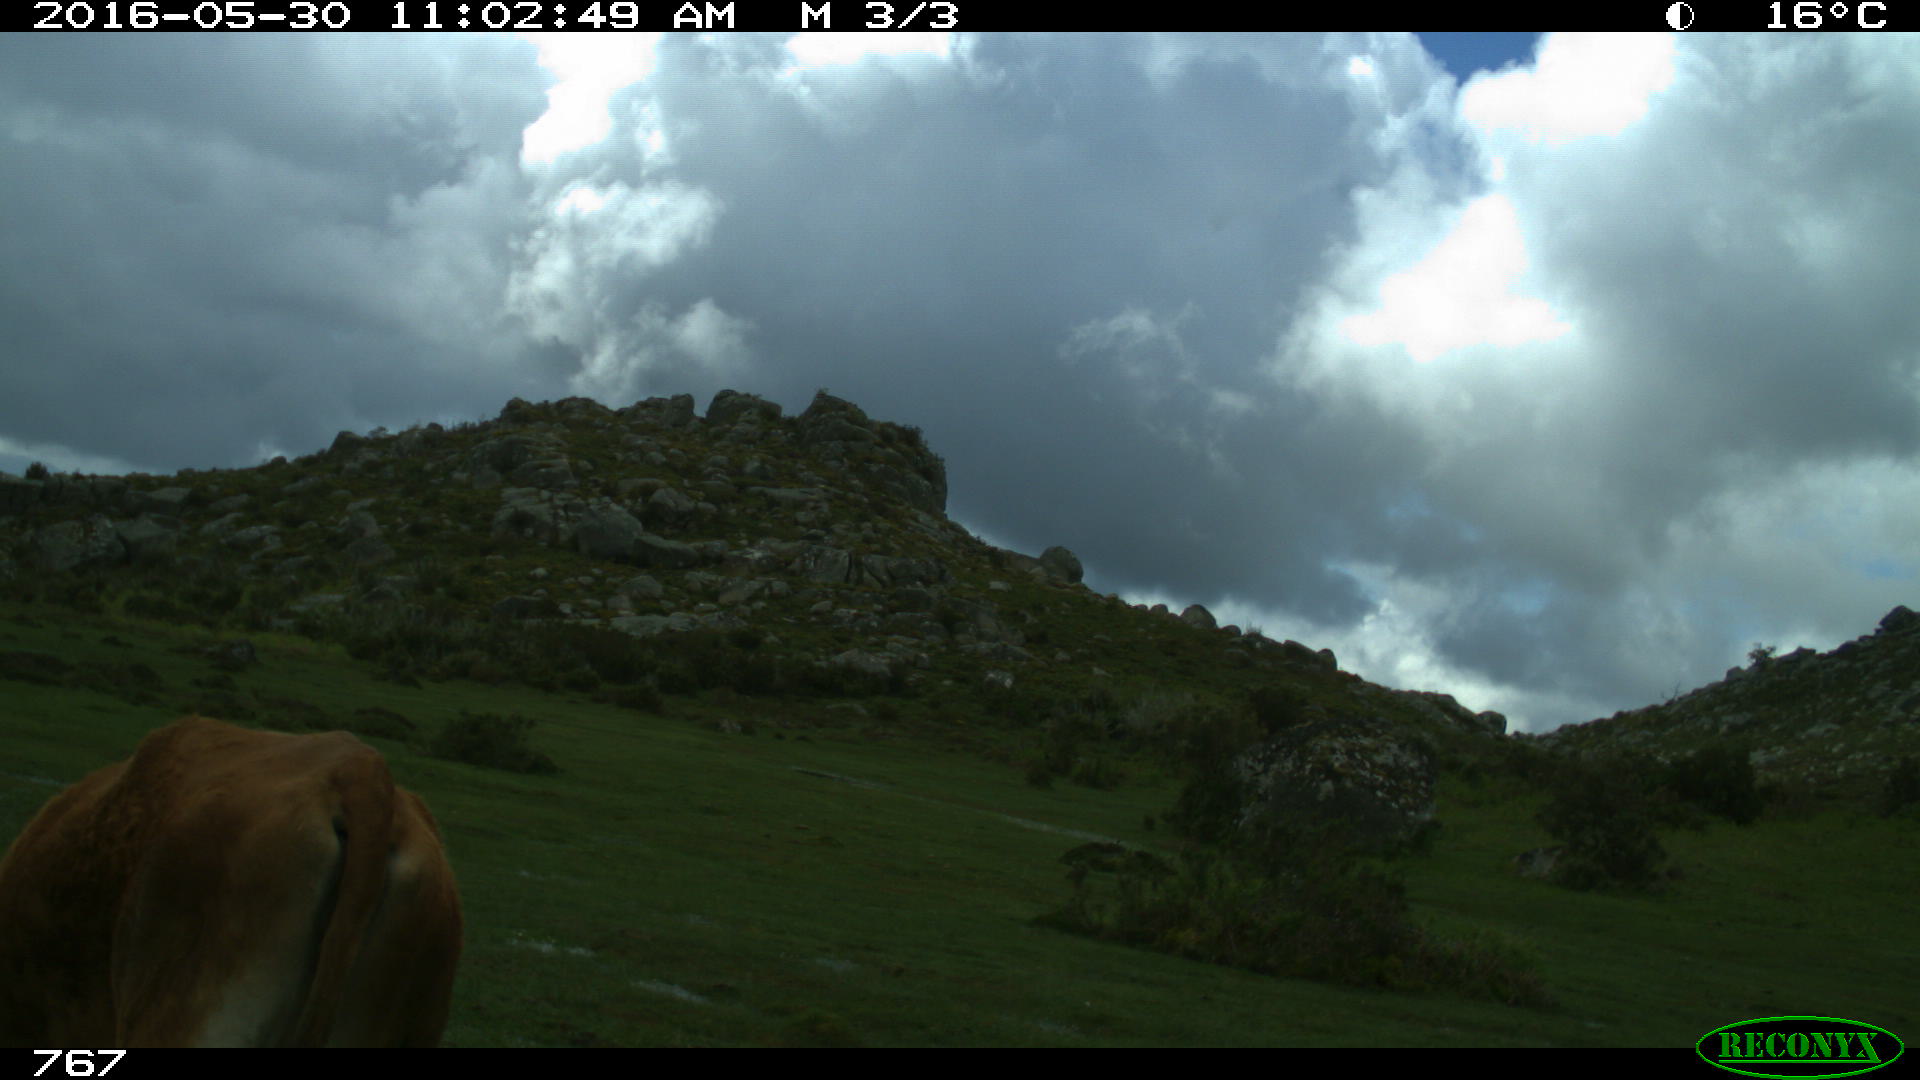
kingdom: Animalia
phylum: Chordata
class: Mammalia
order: Artiodactyla
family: Bovidae
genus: Bos
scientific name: Bos taurus
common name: Domesticated cattle
